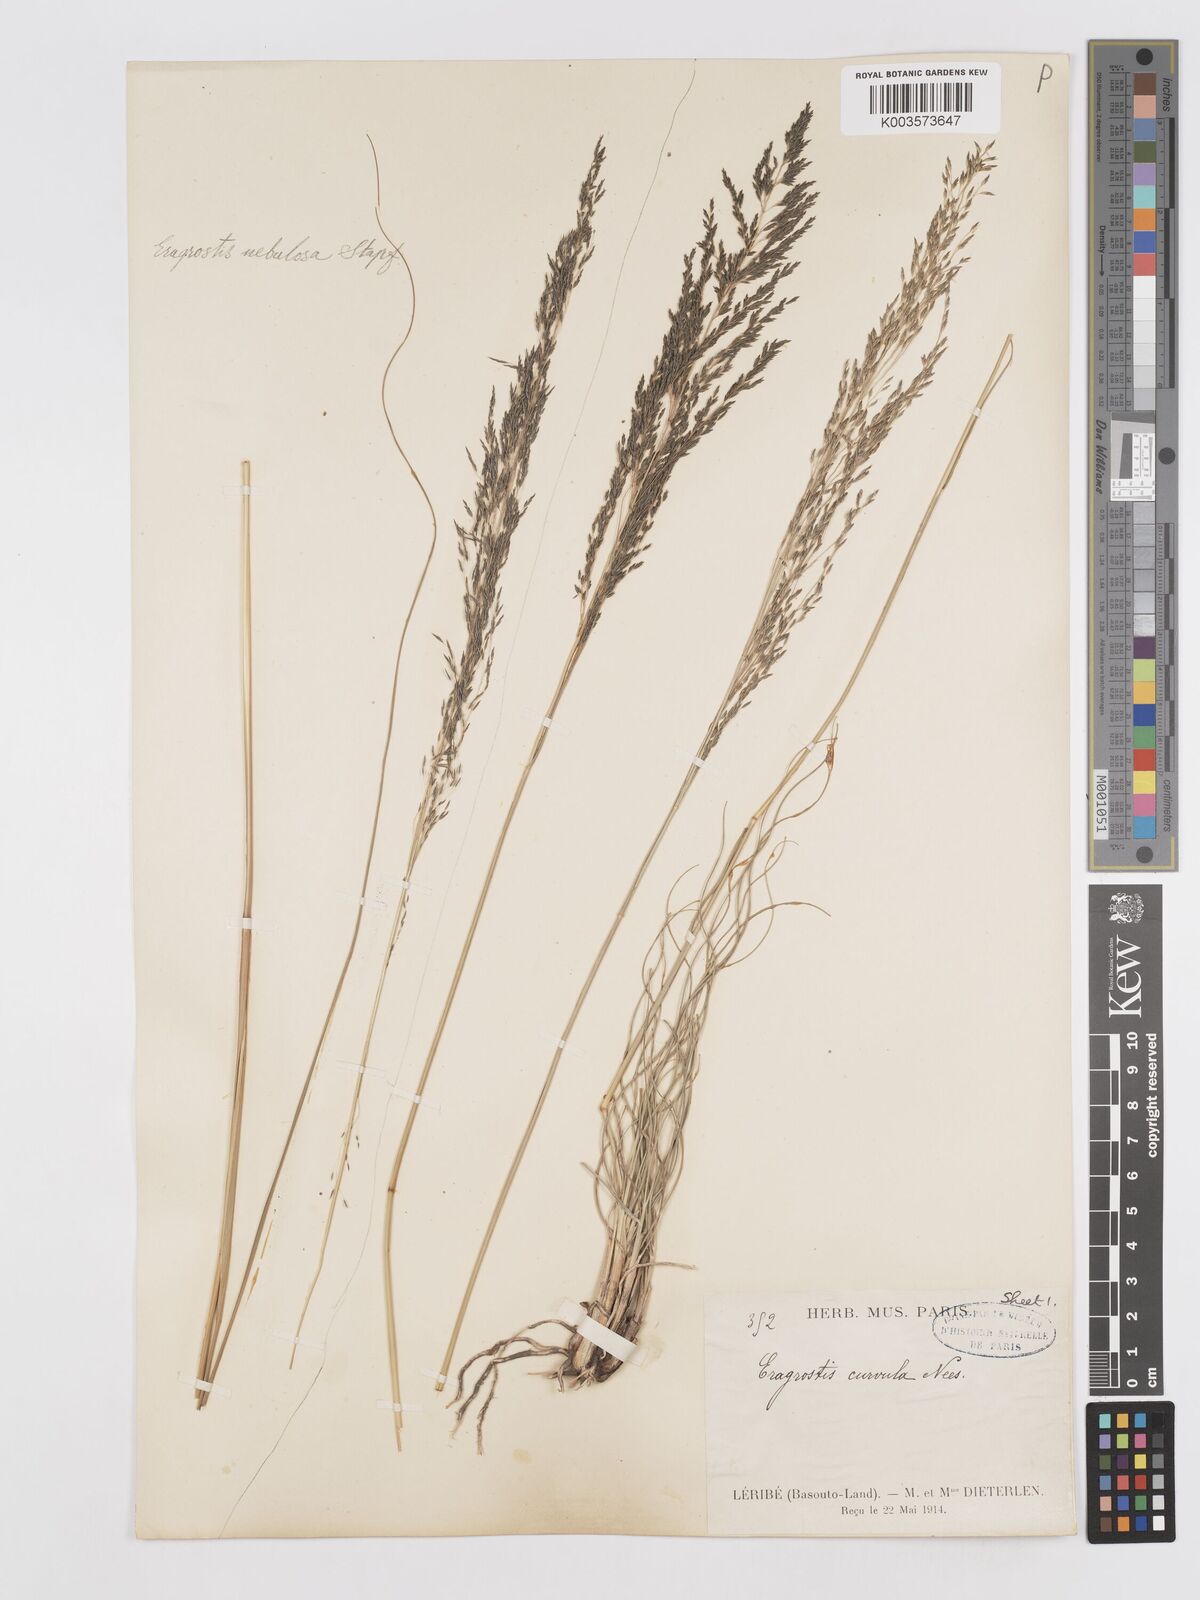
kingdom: Plantae
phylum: Tracheophyta
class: Liliopsida
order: Poales
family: Poaceae
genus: Eragrostis
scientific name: Eragrostis planiculmis
